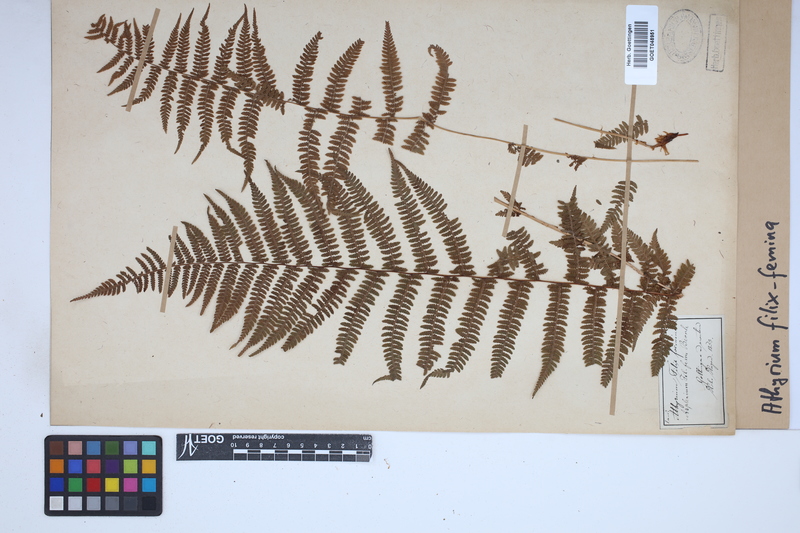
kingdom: Plantae
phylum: Tracheophyta
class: Polypodiopsida
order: Polypodiales
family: Athyriaceae
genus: Athyrium
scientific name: Athyrium filix-femina
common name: Lady fern
